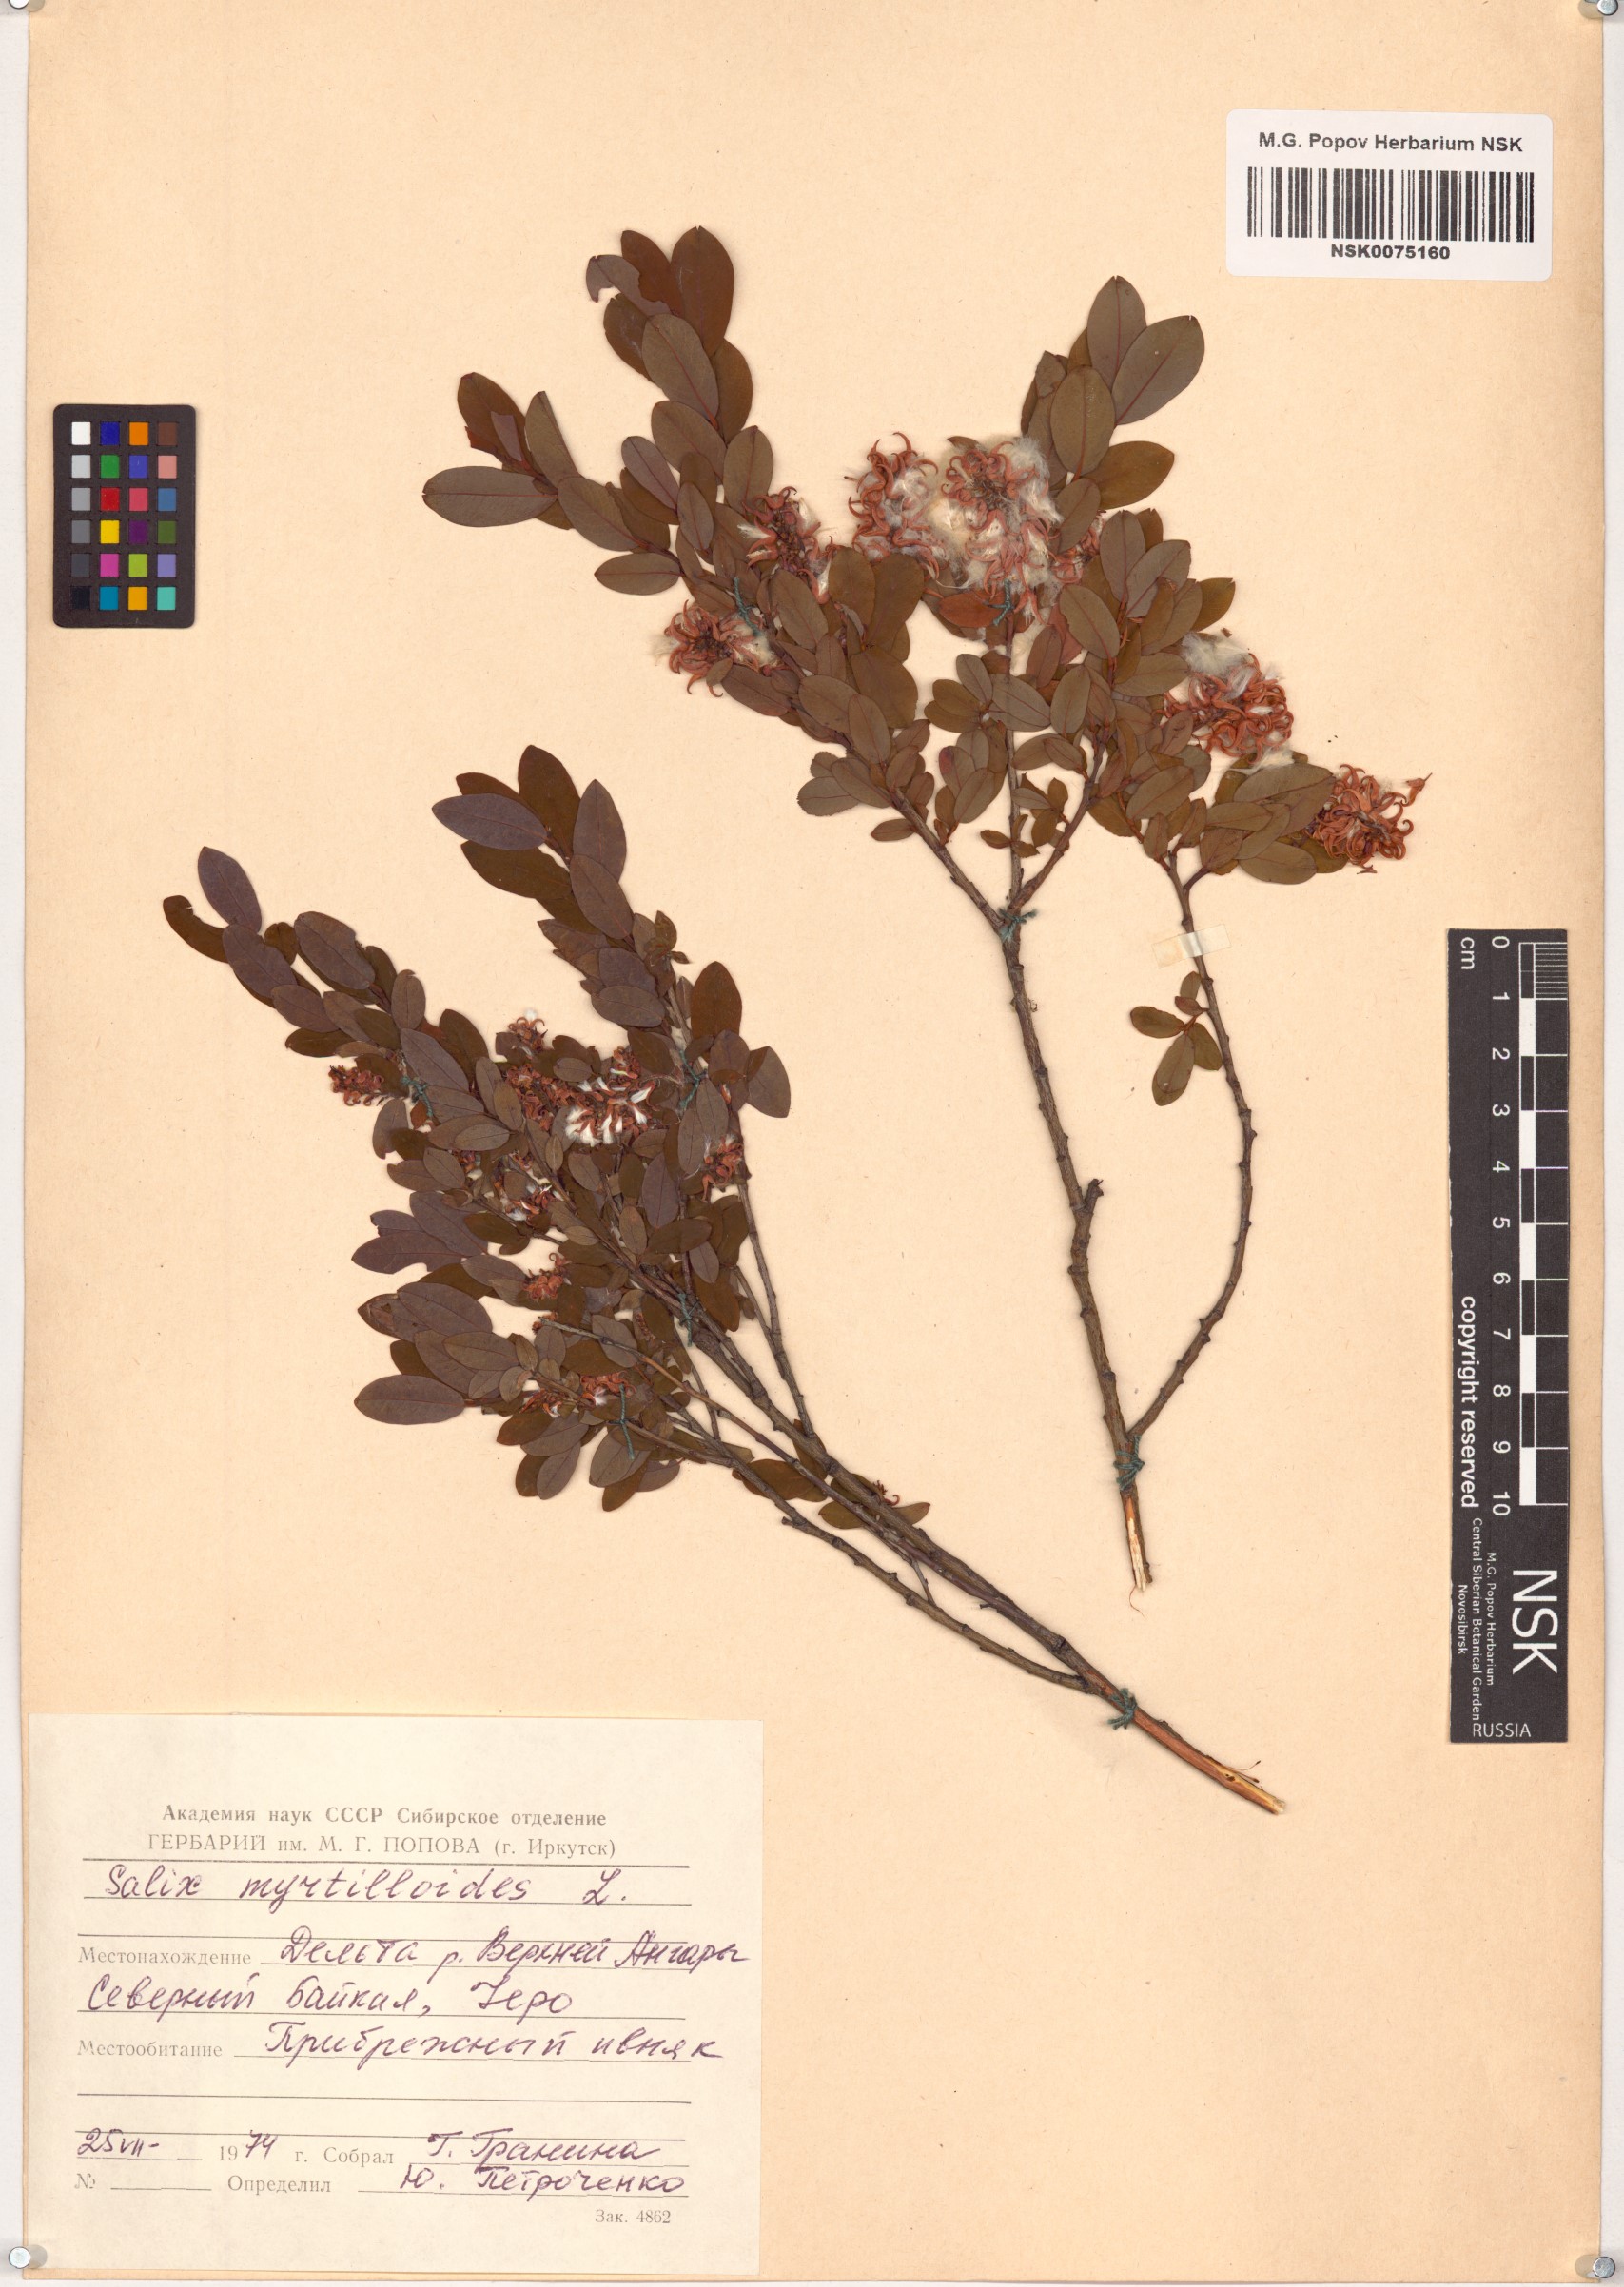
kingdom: Plantae
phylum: Tracheophyta
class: Magnoliopsida
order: Malpighiales
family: Salicaceae
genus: Salix
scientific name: Salix myrtilloides
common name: Myrtle-leaved willow
